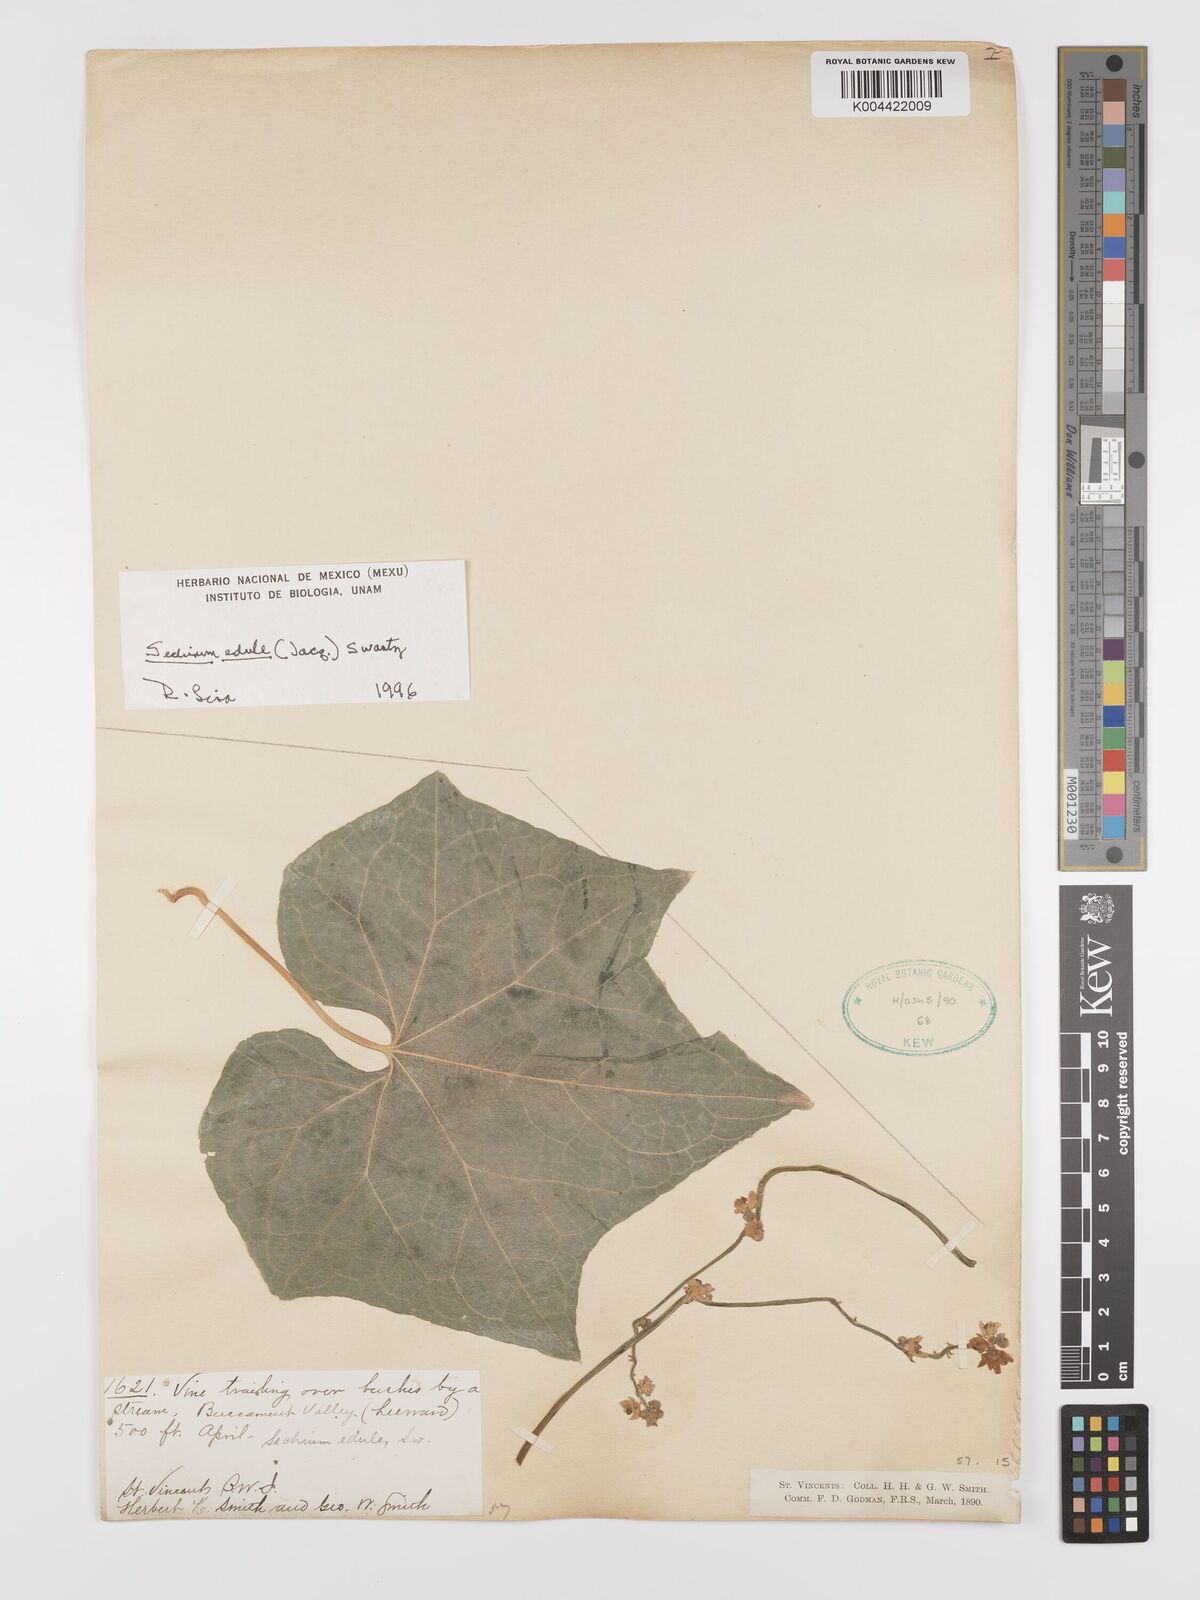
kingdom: Plantae
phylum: Tracheophyta
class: Magnoliopsida
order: Cucurbitales
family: Cucurbitaceae
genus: Sechium
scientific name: Sechium
